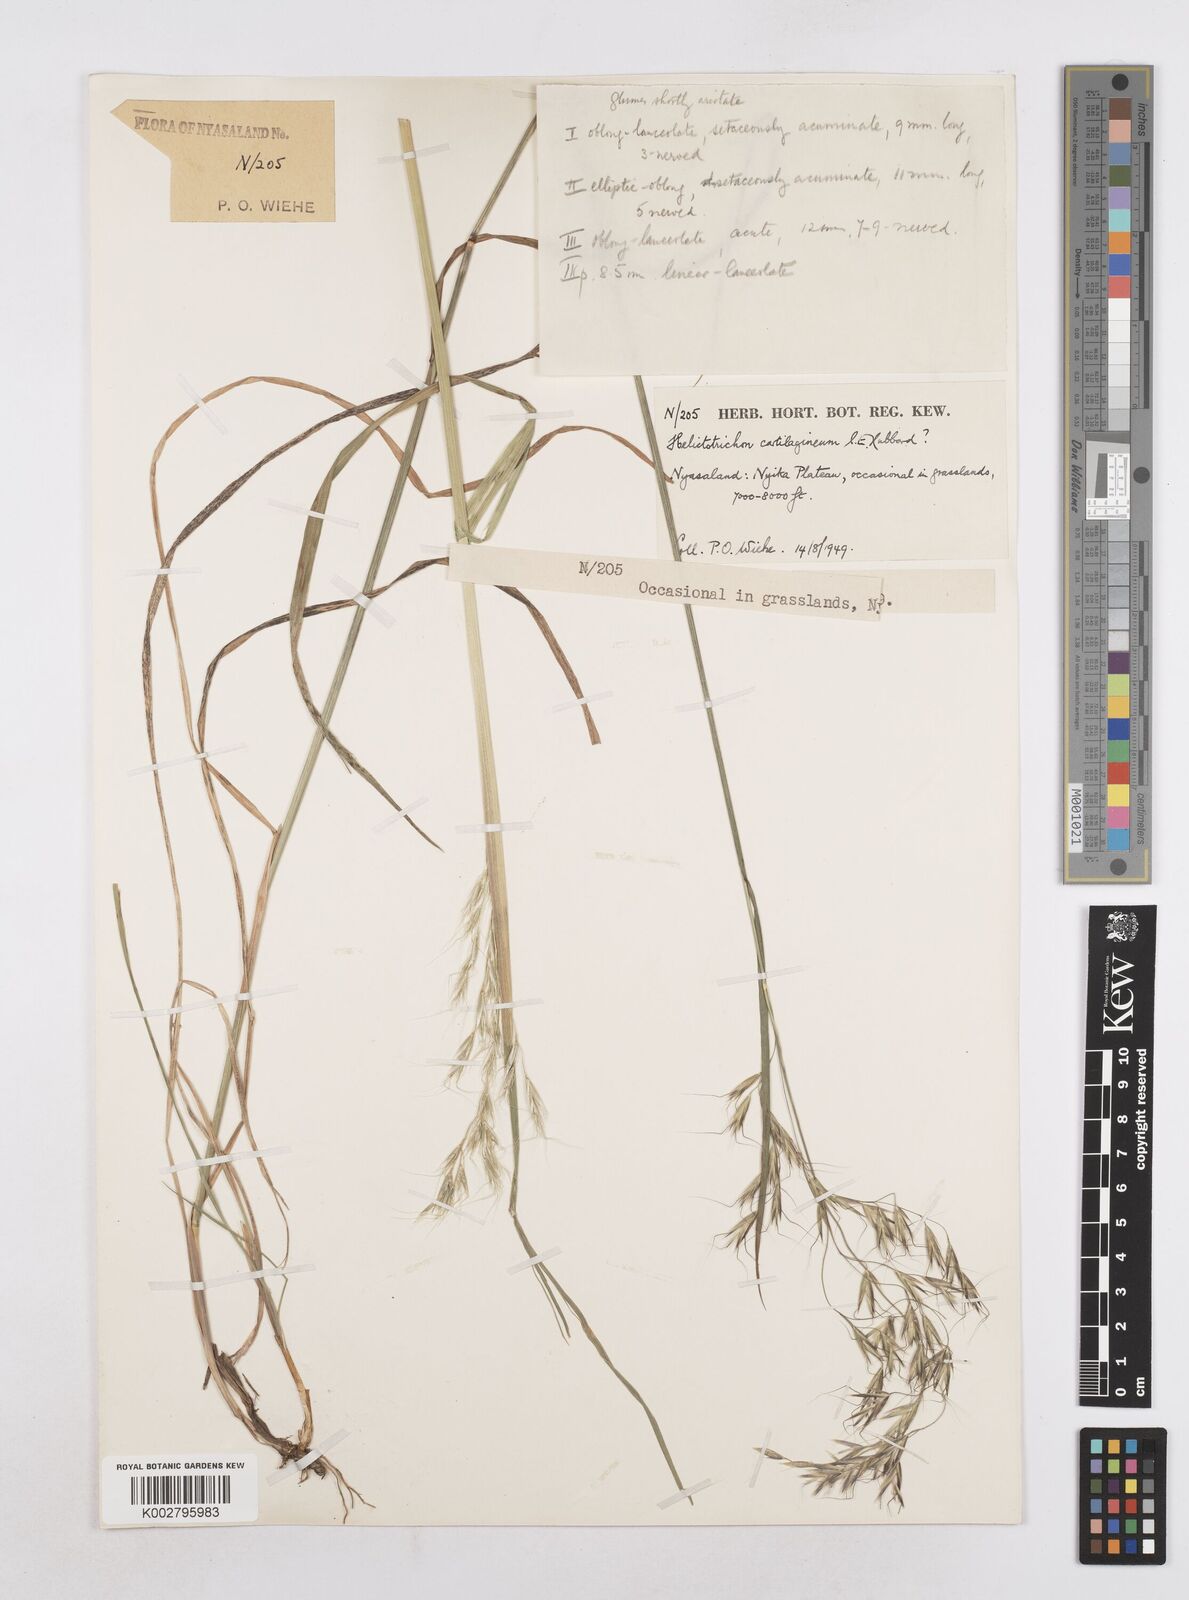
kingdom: Plantae
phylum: Tracheophyta
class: Liliopsida
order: Poales
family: Poaceae
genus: Trisetopsis
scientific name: Trisetopsis elongata
